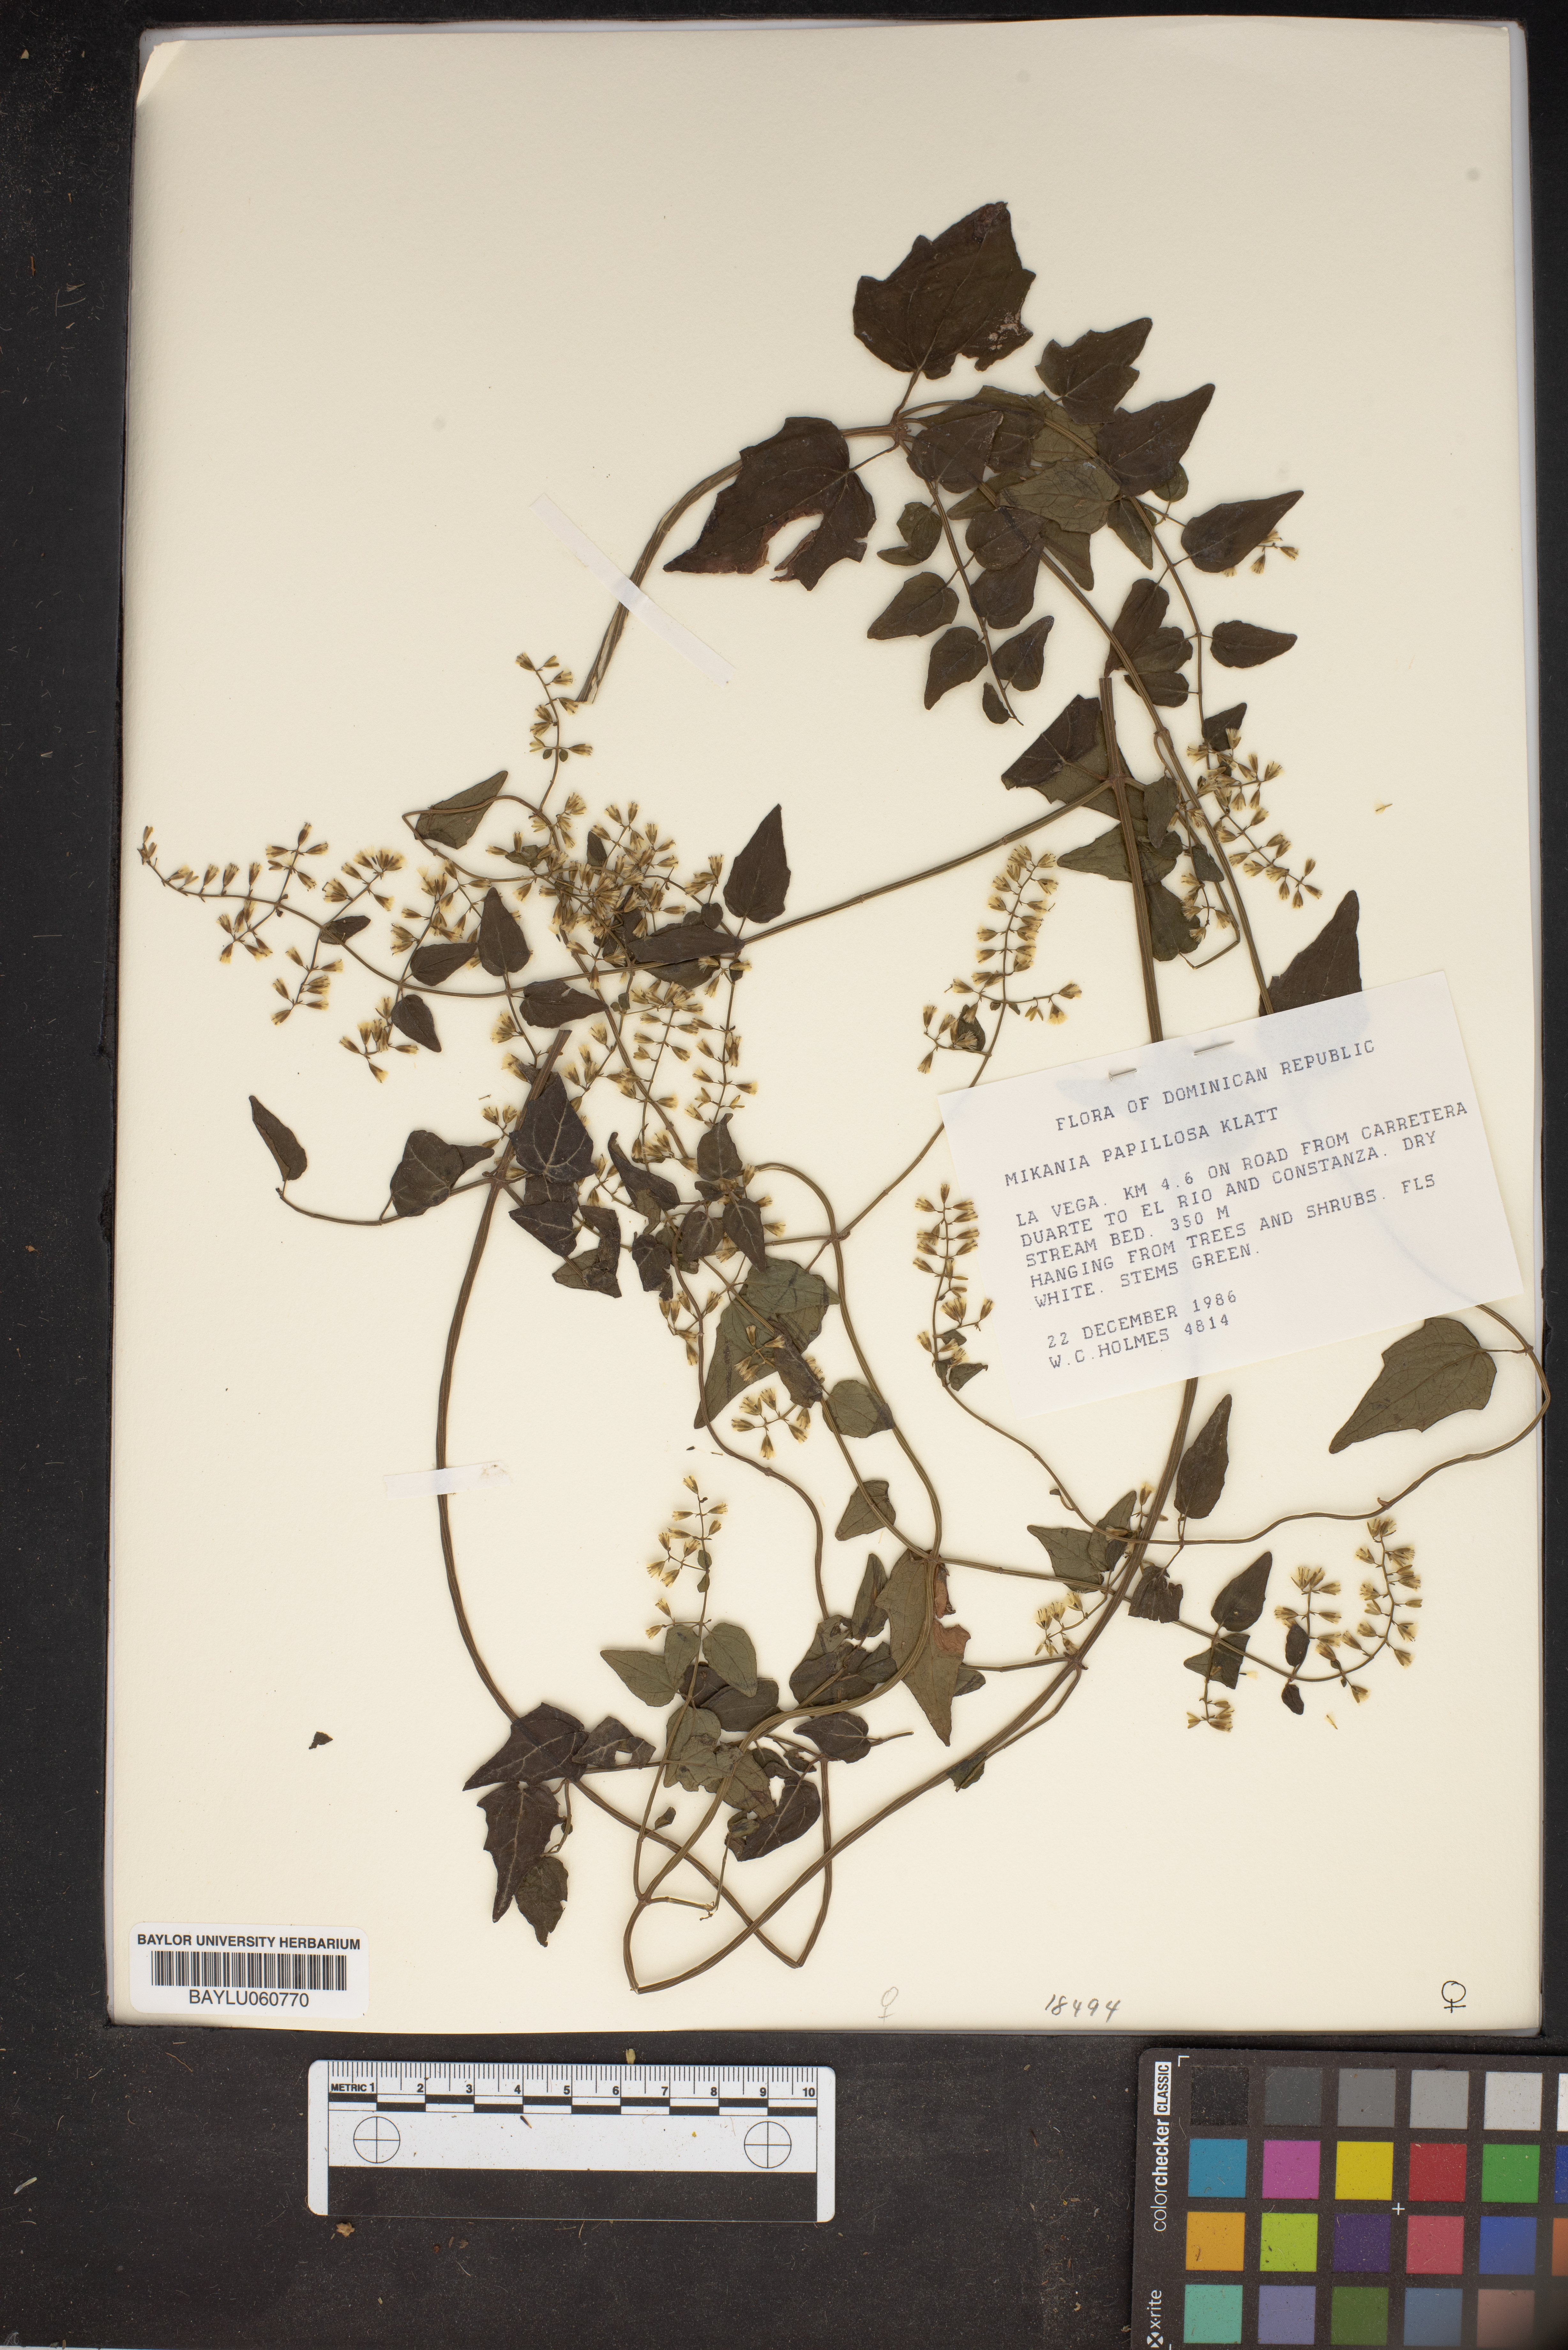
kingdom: Plantae
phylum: Tracheophyta
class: Magnoliopsida
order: Asterales
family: Asteraceae
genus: Mikania
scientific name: Mikania papillosa
